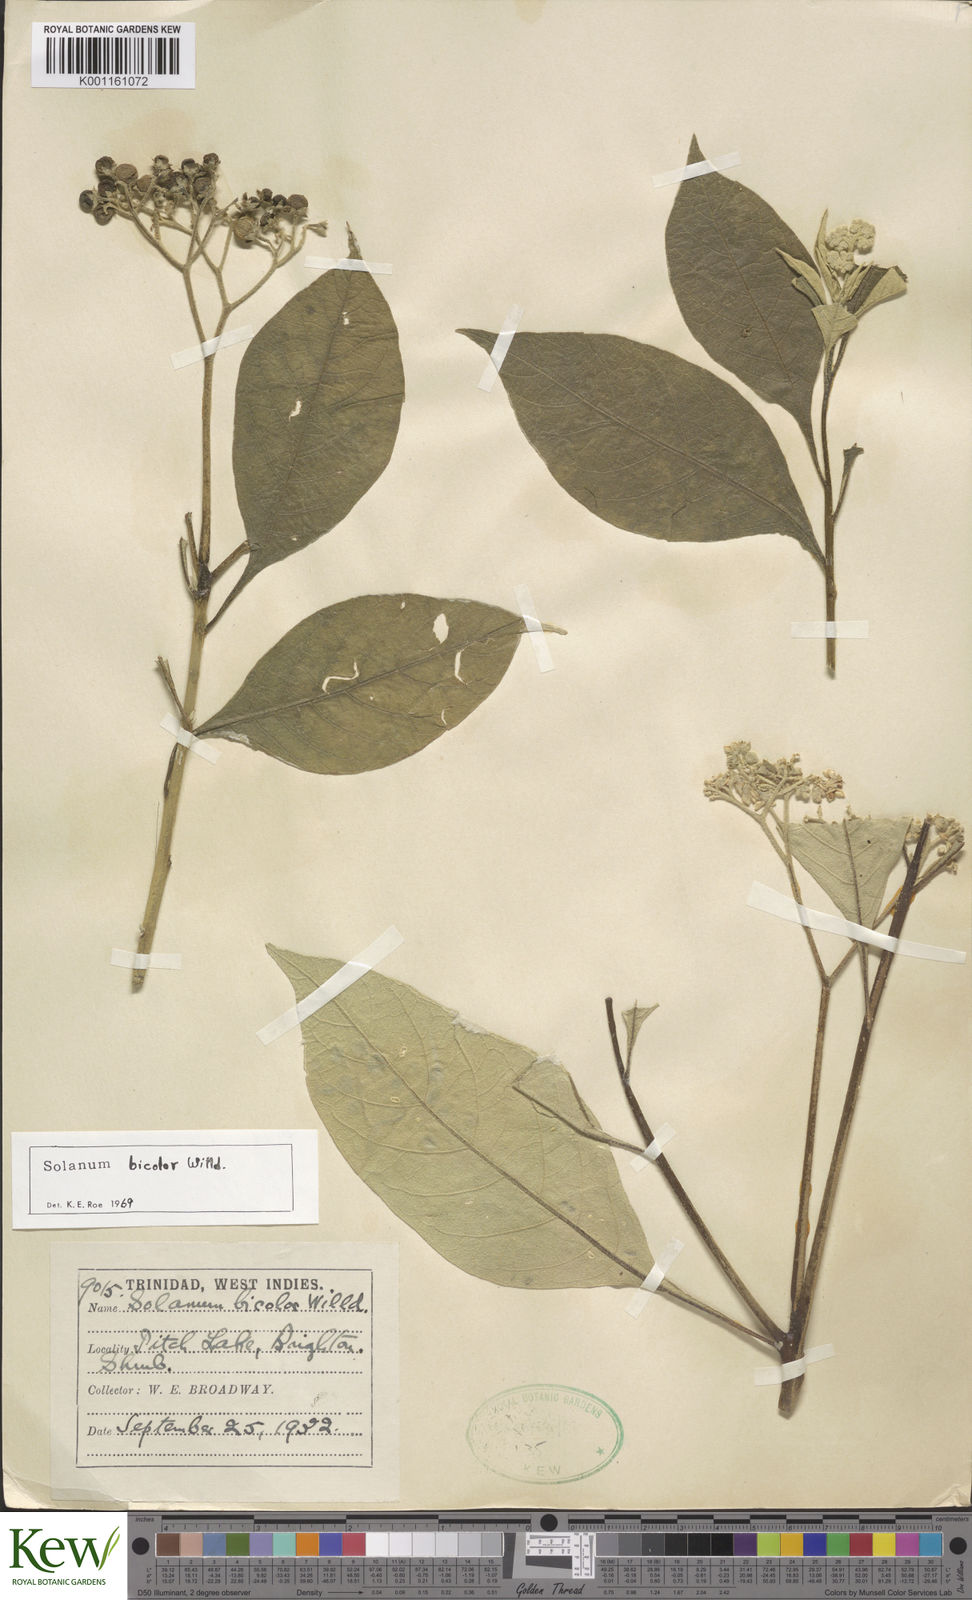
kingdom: Plantae
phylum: Tracheophyta
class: Magnoliopsida
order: Solanales
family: Solanaceae
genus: Solanum
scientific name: Solanum bicolor
